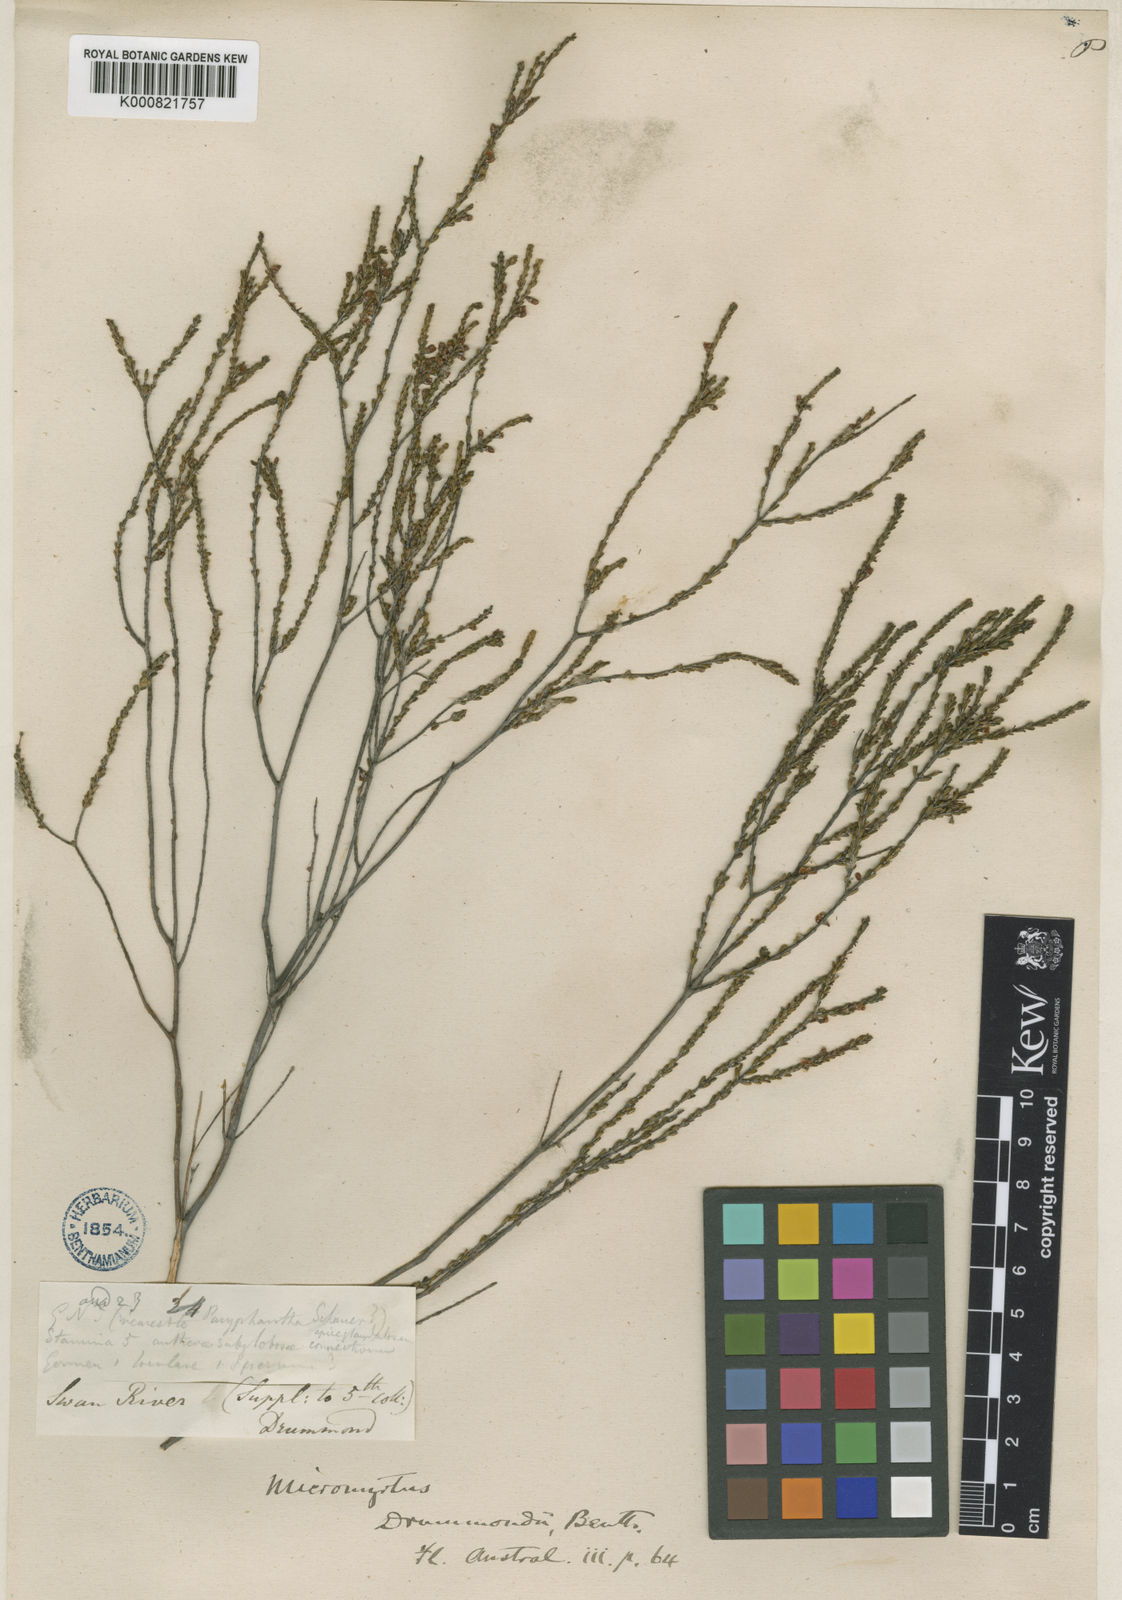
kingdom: Plantae
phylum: Tracheophyta
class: Magnoliopsida
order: Myrtales
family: Myrtaceae
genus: Micromyrtus
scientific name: Micromyrtus obovata
